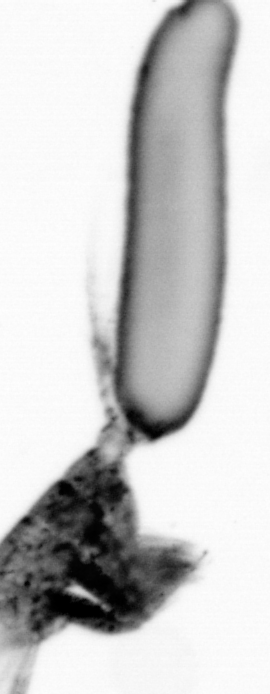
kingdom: Animalia
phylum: Arthropoda
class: Copepoda
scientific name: Copepoda
